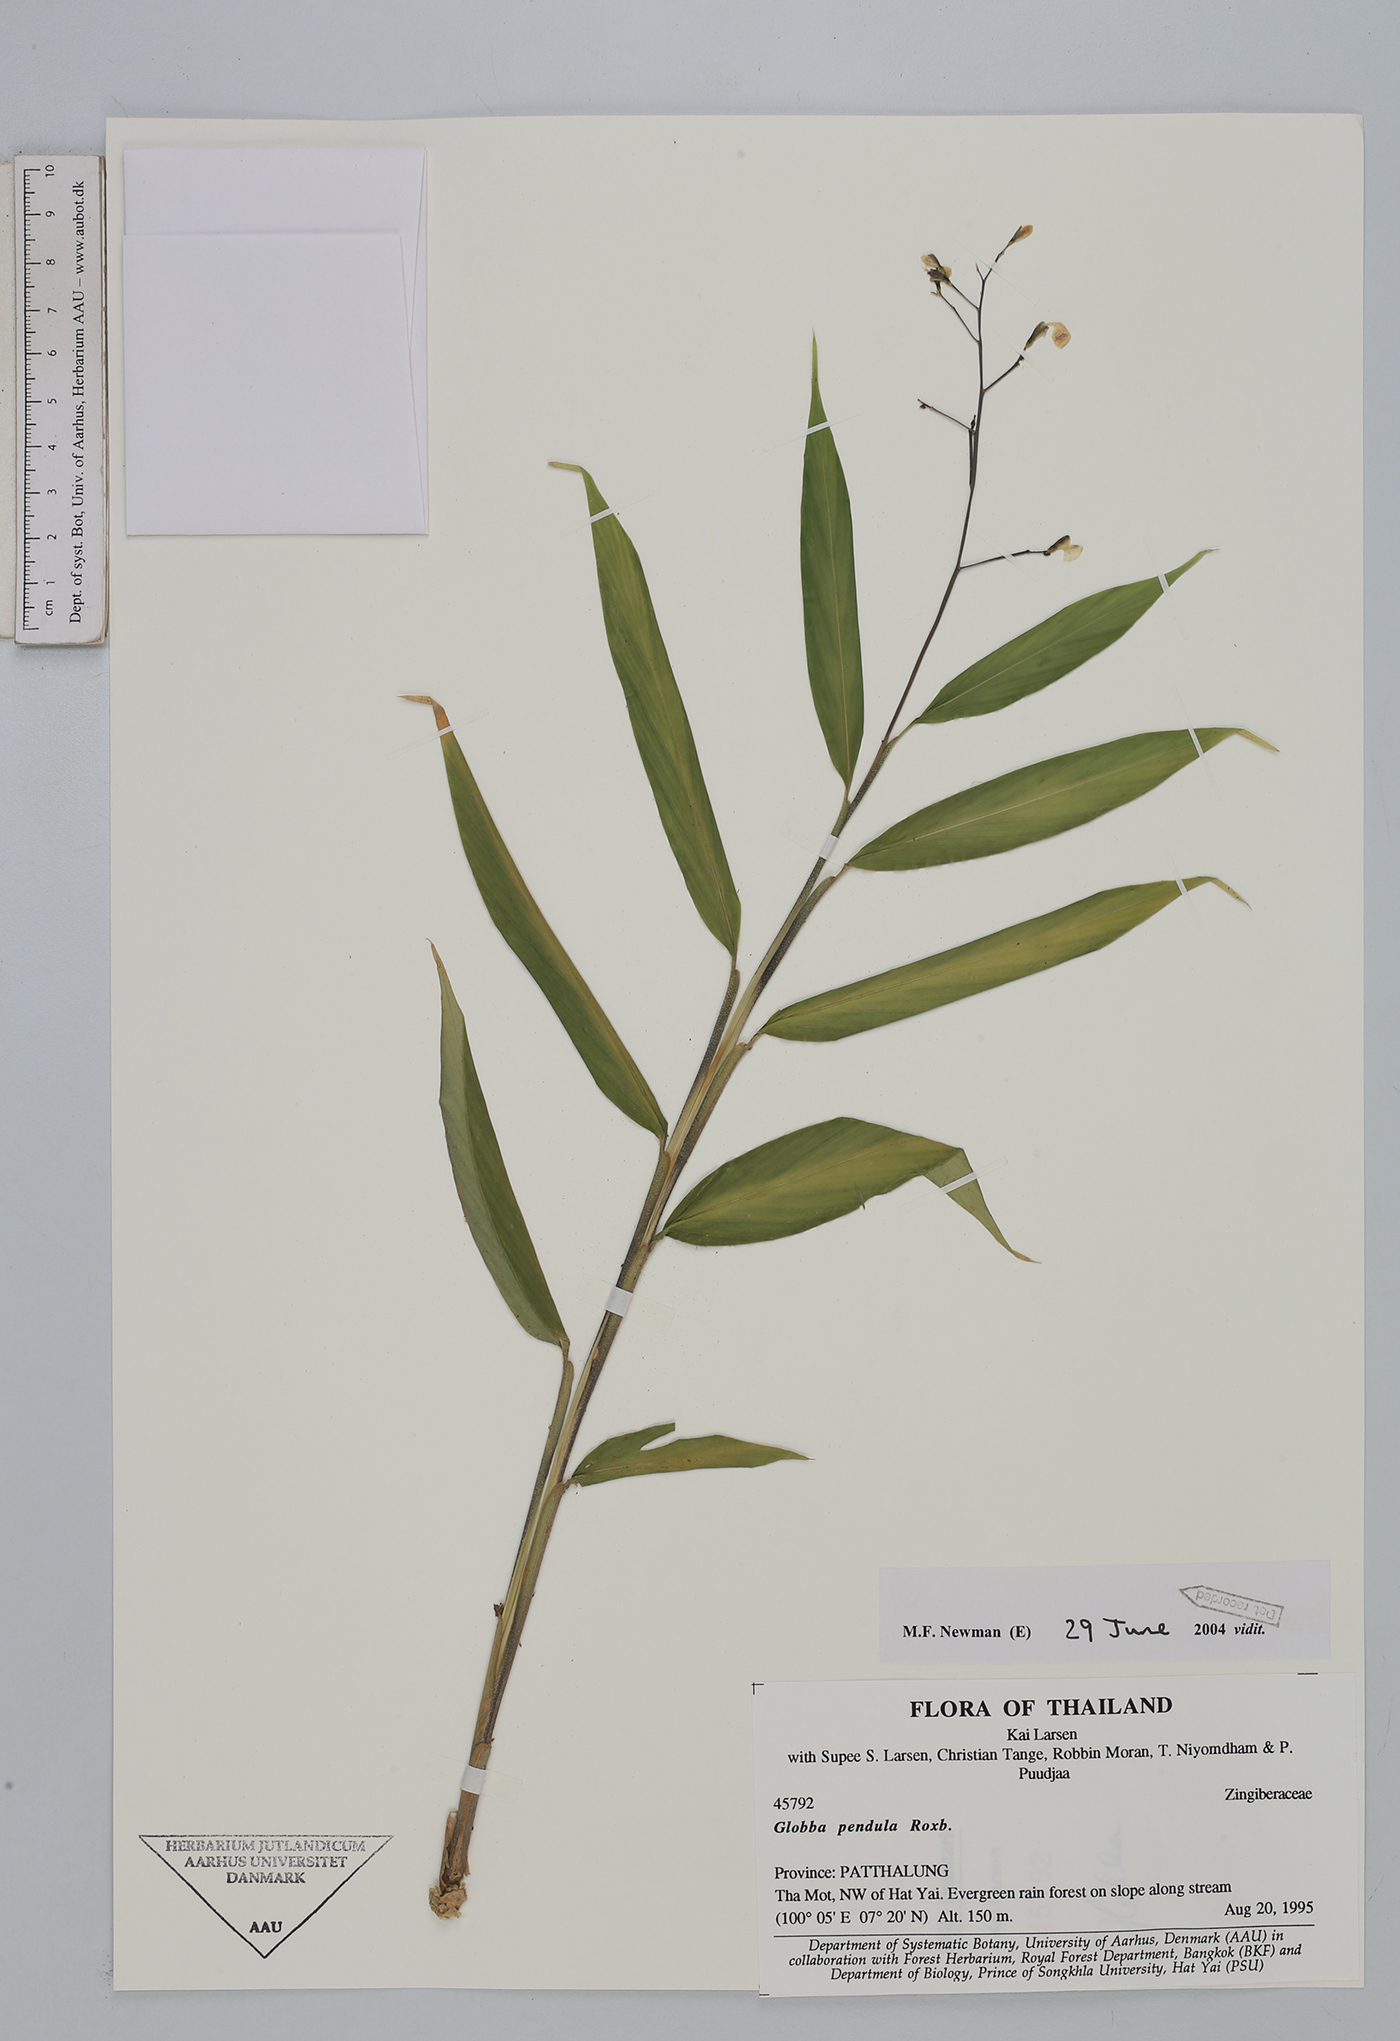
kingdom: Plantae
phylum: Tracheophyta
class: Liliopsida
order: Zingiberales
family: Zingiberaceae
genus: Globba
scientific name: Globba pendula
